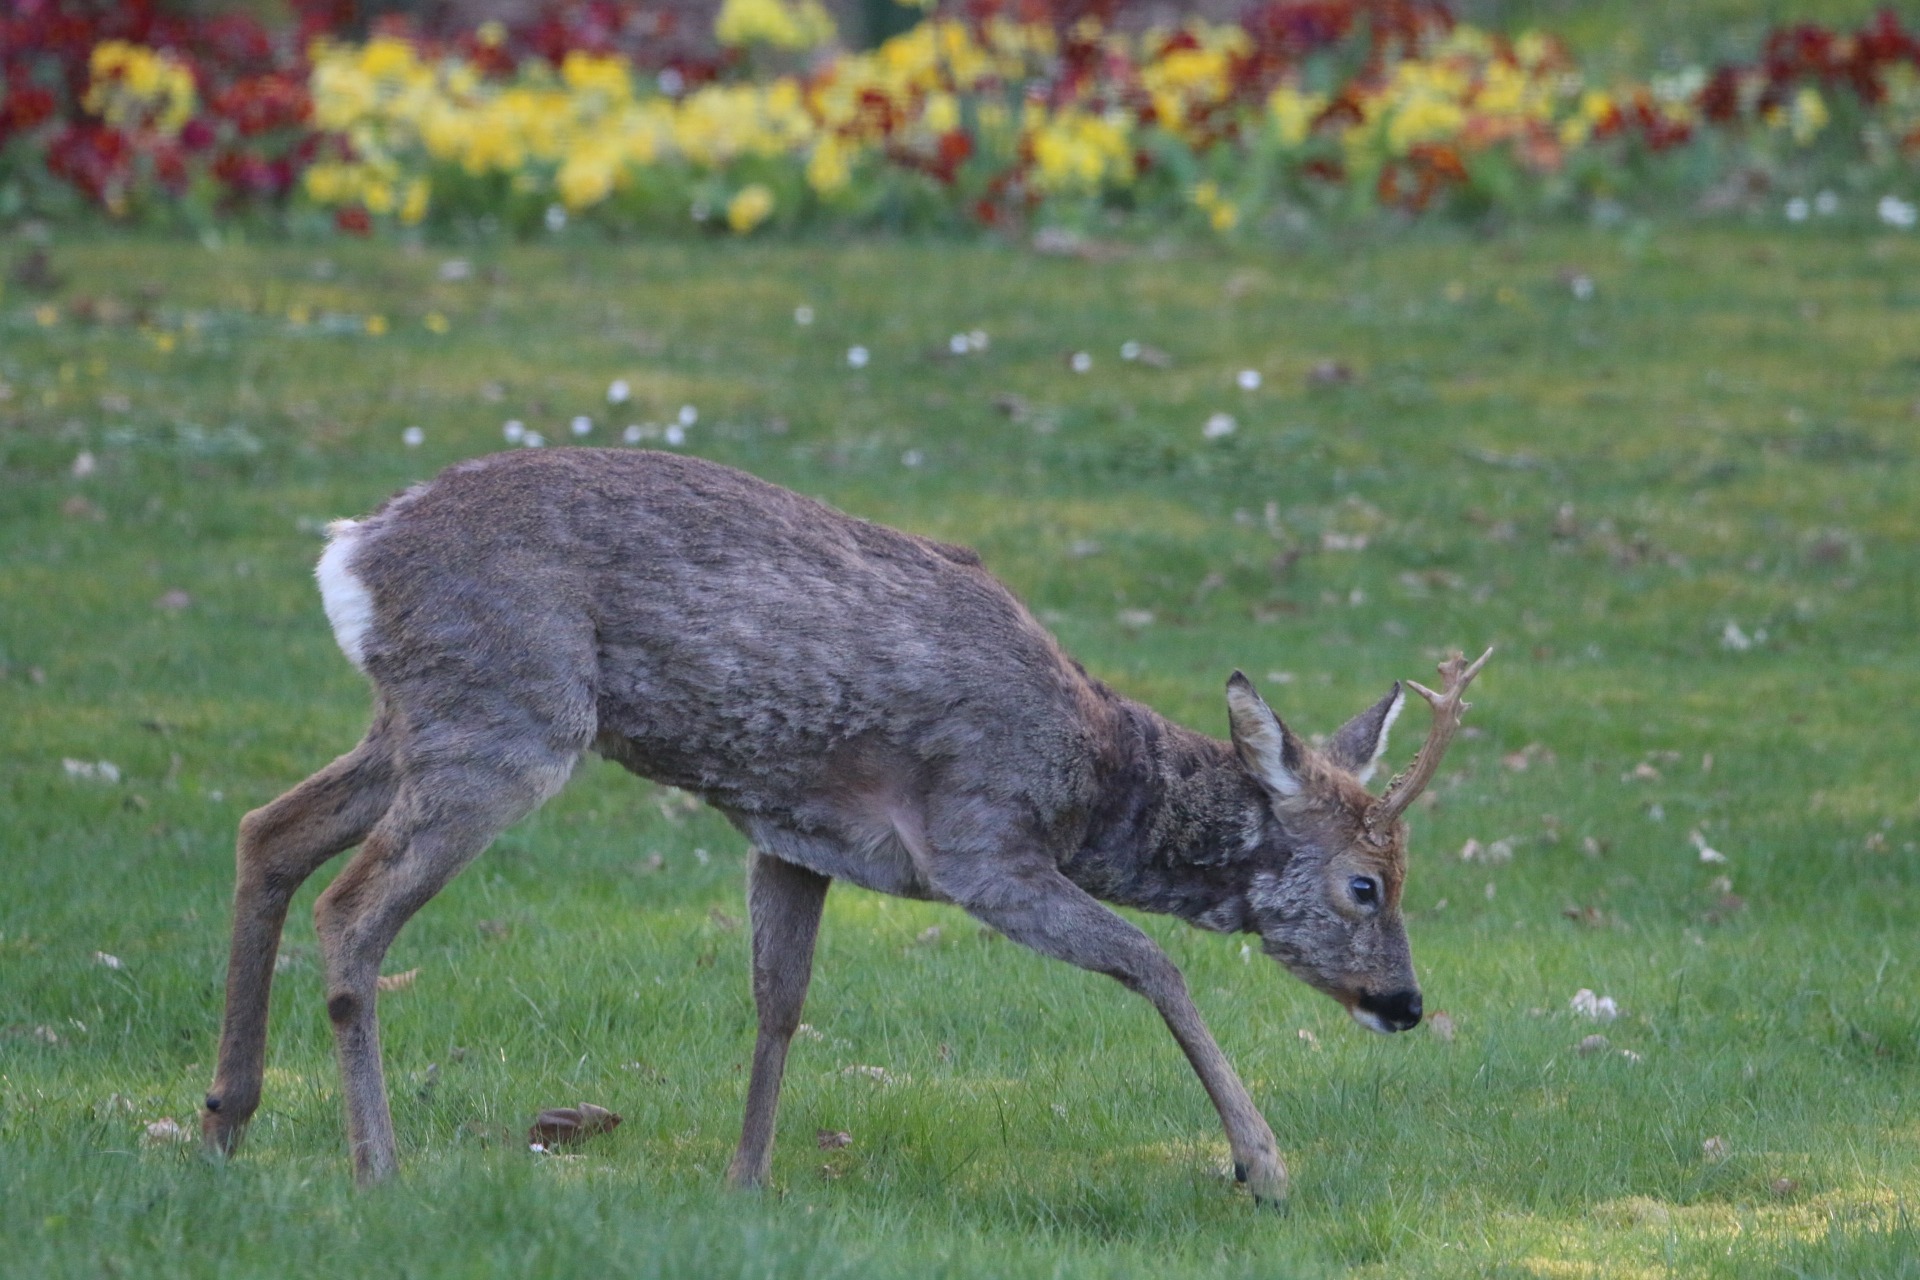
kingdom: Animalia
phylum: Chordata
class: Mammalia
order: Artiodactyla
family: Cervidae
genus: Capreolus
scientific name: Capreolus capreolus
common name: Rådyr
